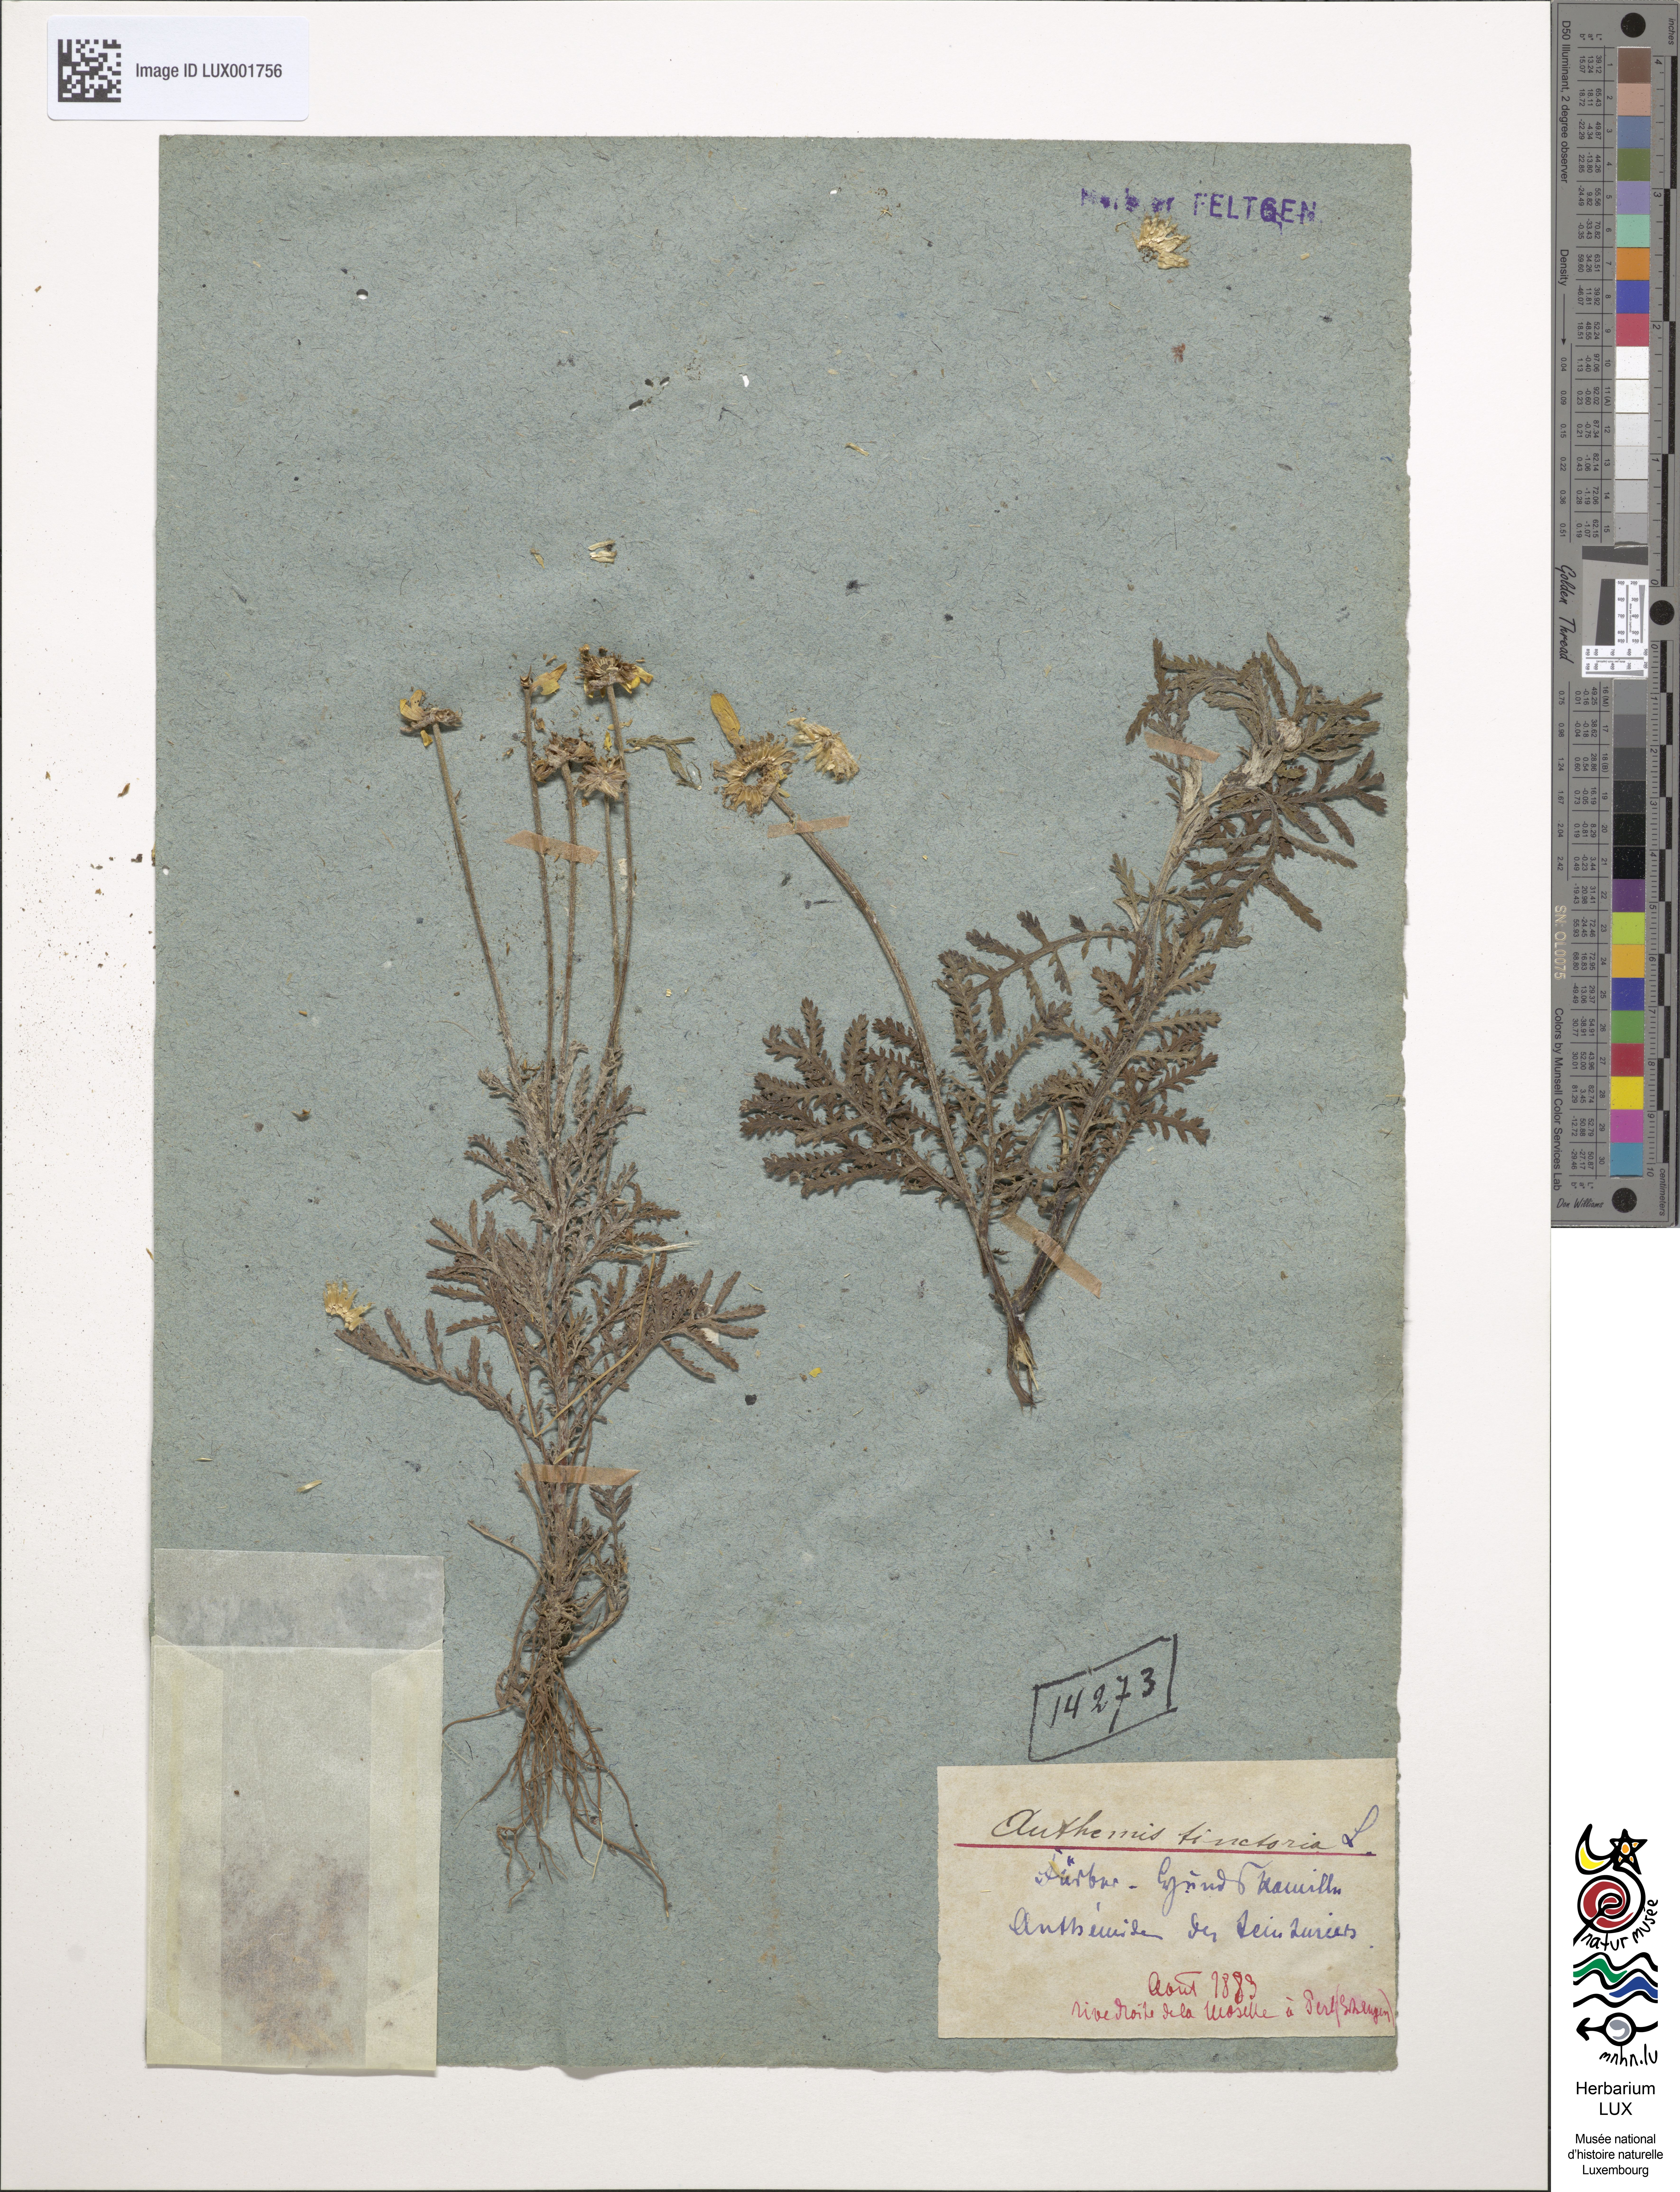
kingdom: Plantae
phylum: Tracheophyta
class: Magnoliopsida
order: Asterales
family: Asteraceae
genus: Cota
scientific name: Cota tinctoria
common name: Golden chamomile
